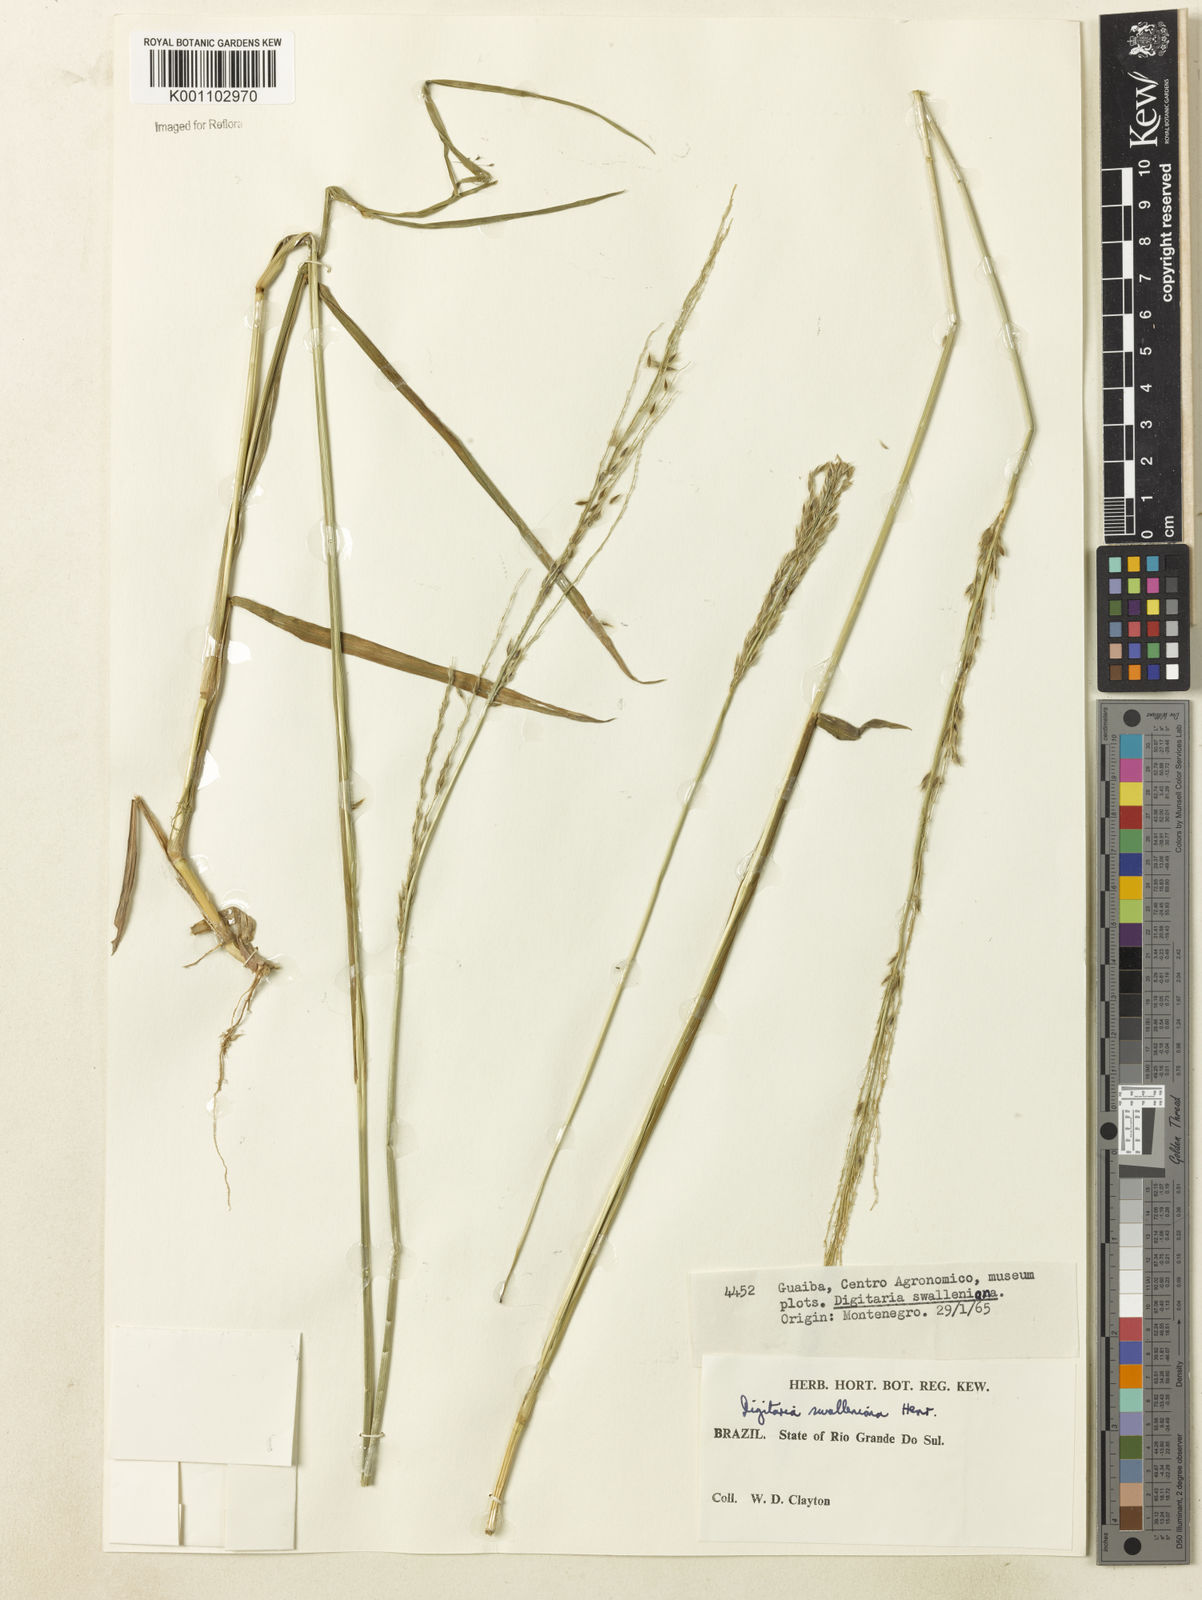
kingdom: Plantae
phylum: Tracheophyta
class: Liliopsida
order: Poales
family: Poaceae
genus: Digitaria
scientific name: Digitaria
